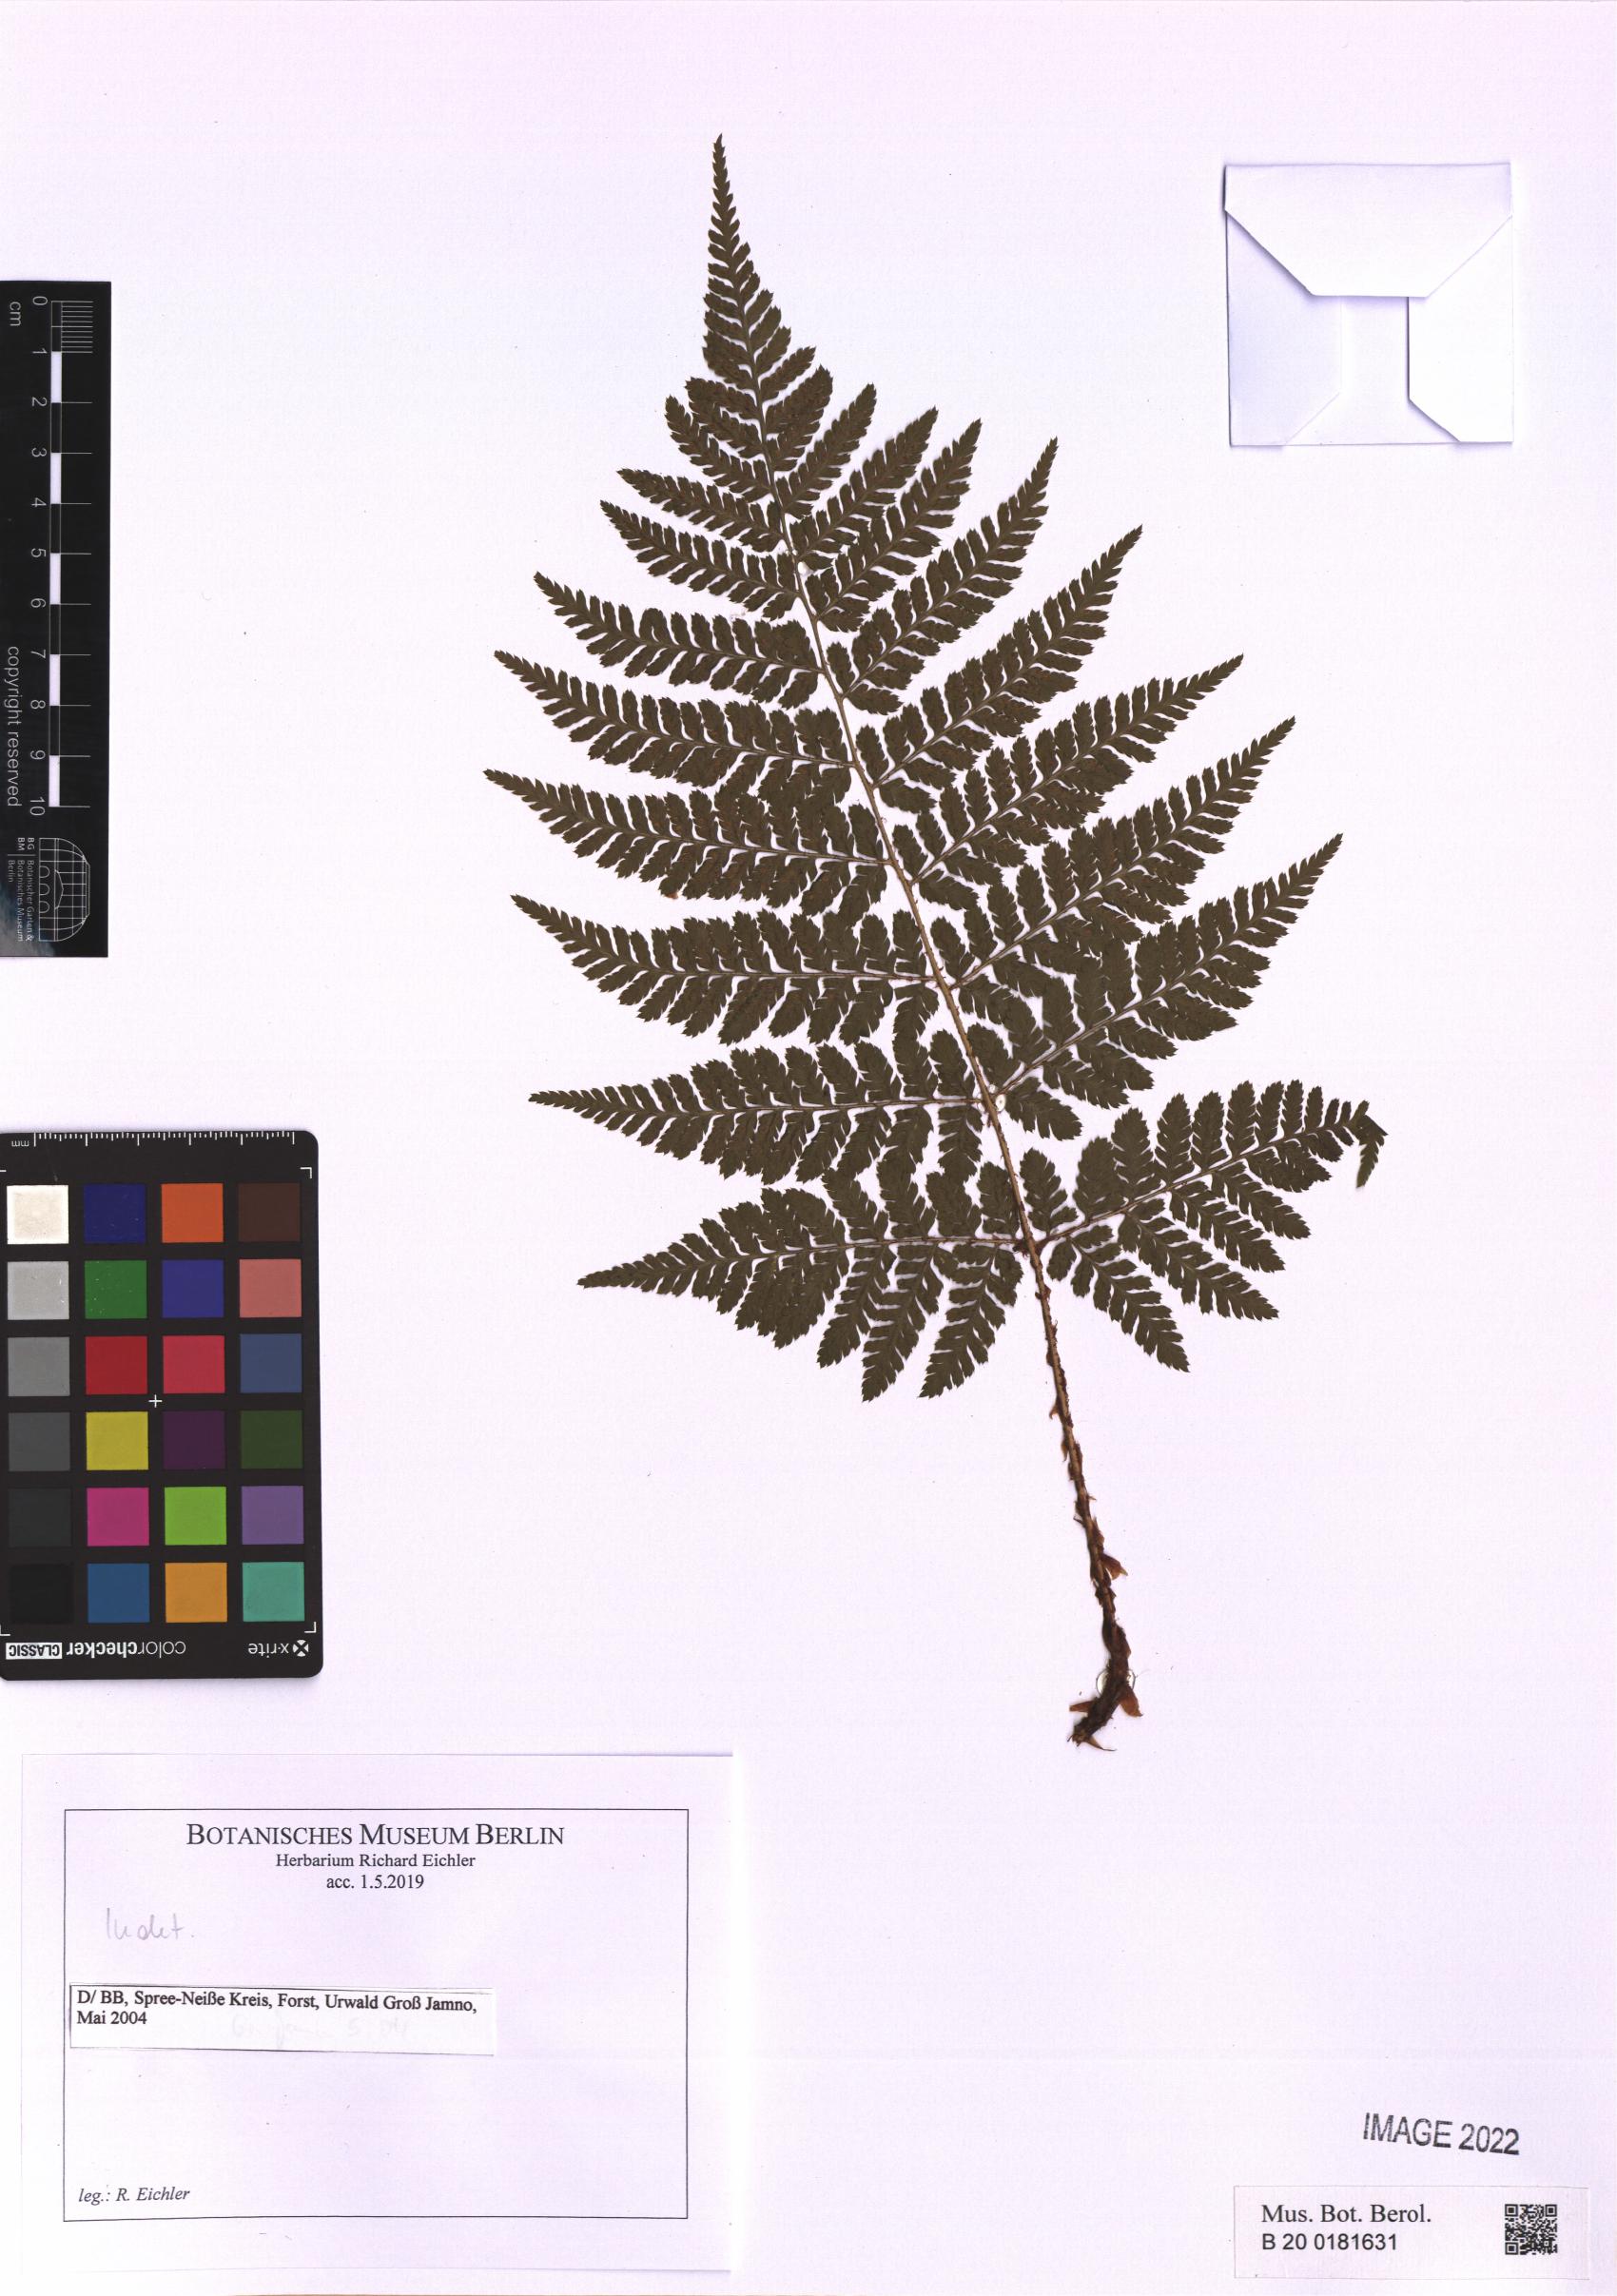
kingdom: Plantae
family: Pteridophyta
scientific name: Pteridophyta
